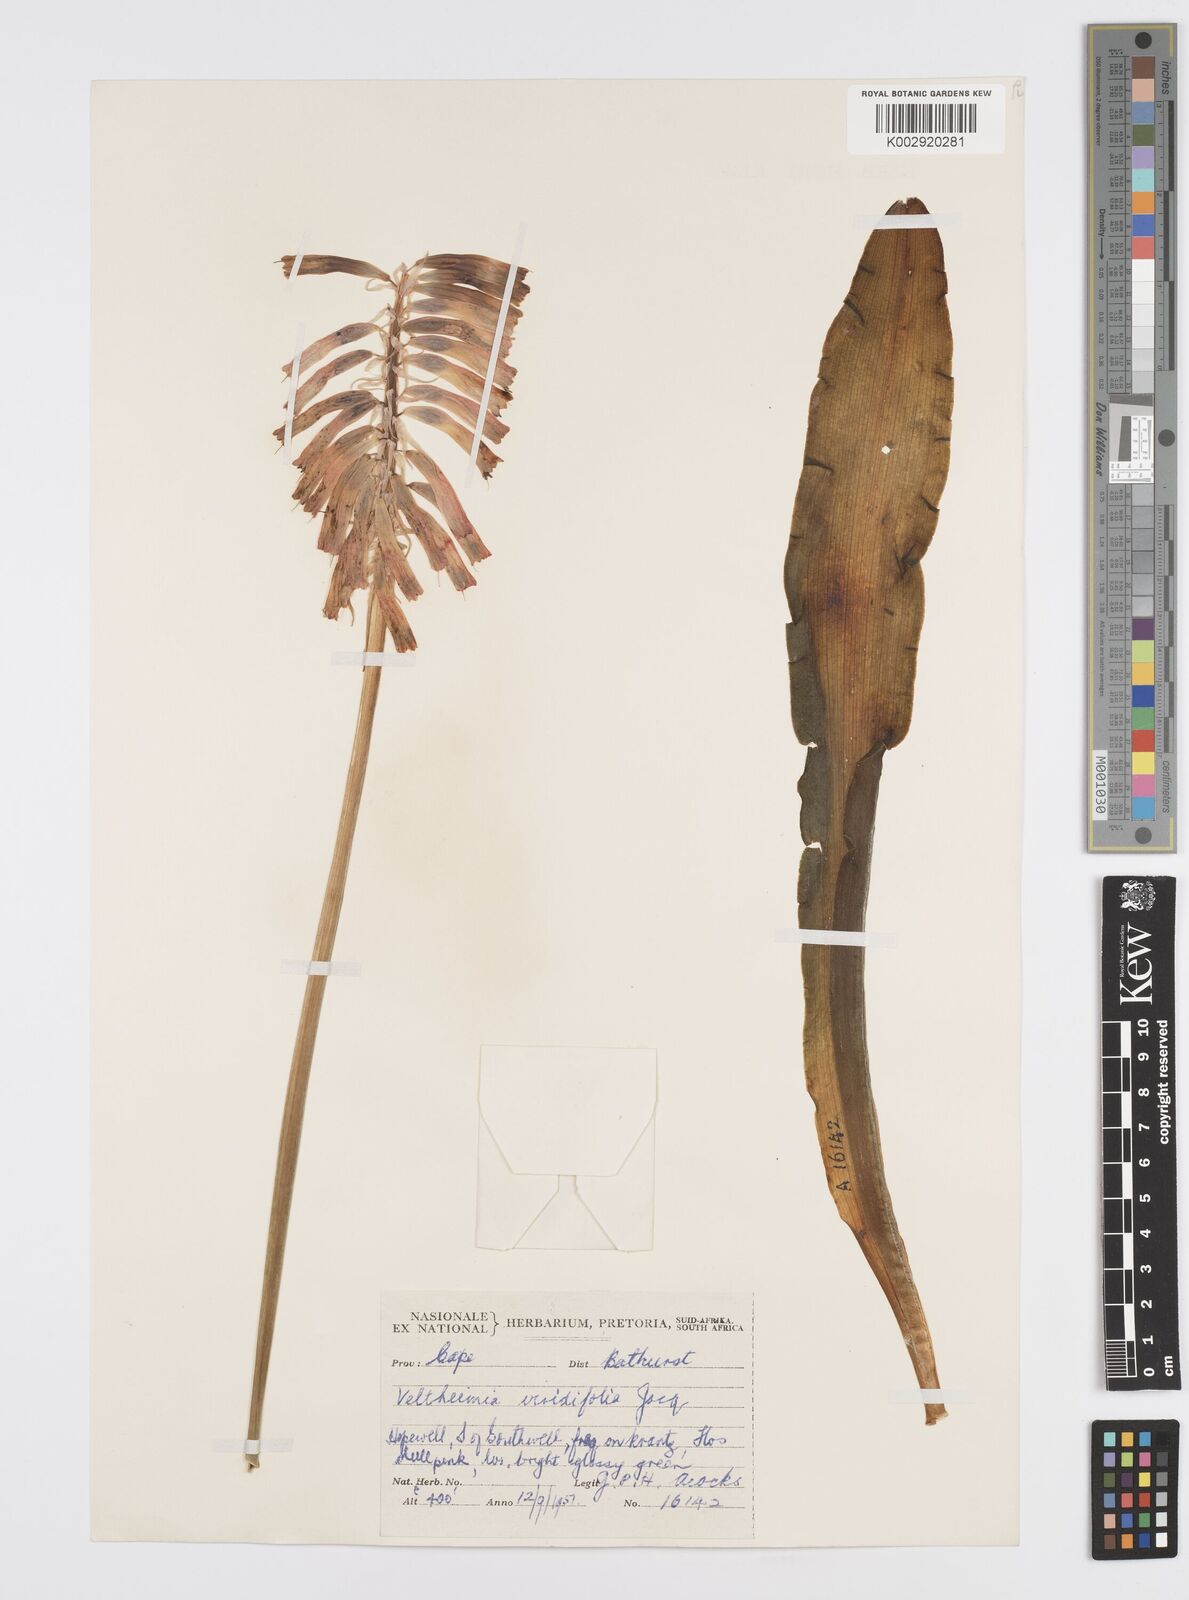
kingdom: Plantae
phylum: Tracheophyta
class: Liliopsida
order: Asparagales
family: Asparagaceae
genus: Veltheimia
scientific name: Veltheimia bracteata
